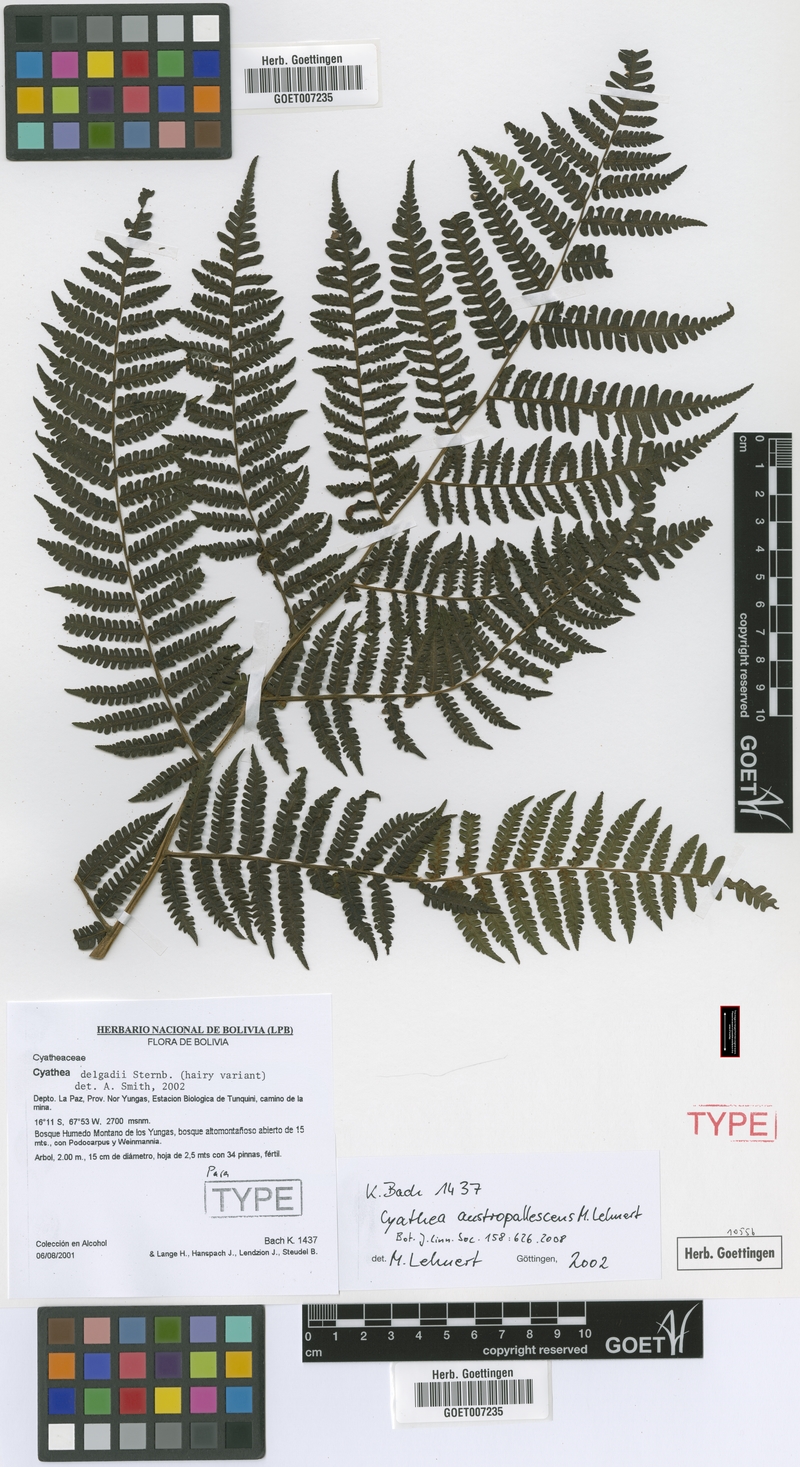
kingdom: Plantae
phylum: Tracheophyta
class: Polypodiopsida
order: Cyatheales
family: Cyatheaceae
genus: Cyathea
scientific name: Cyathea austropallescens
